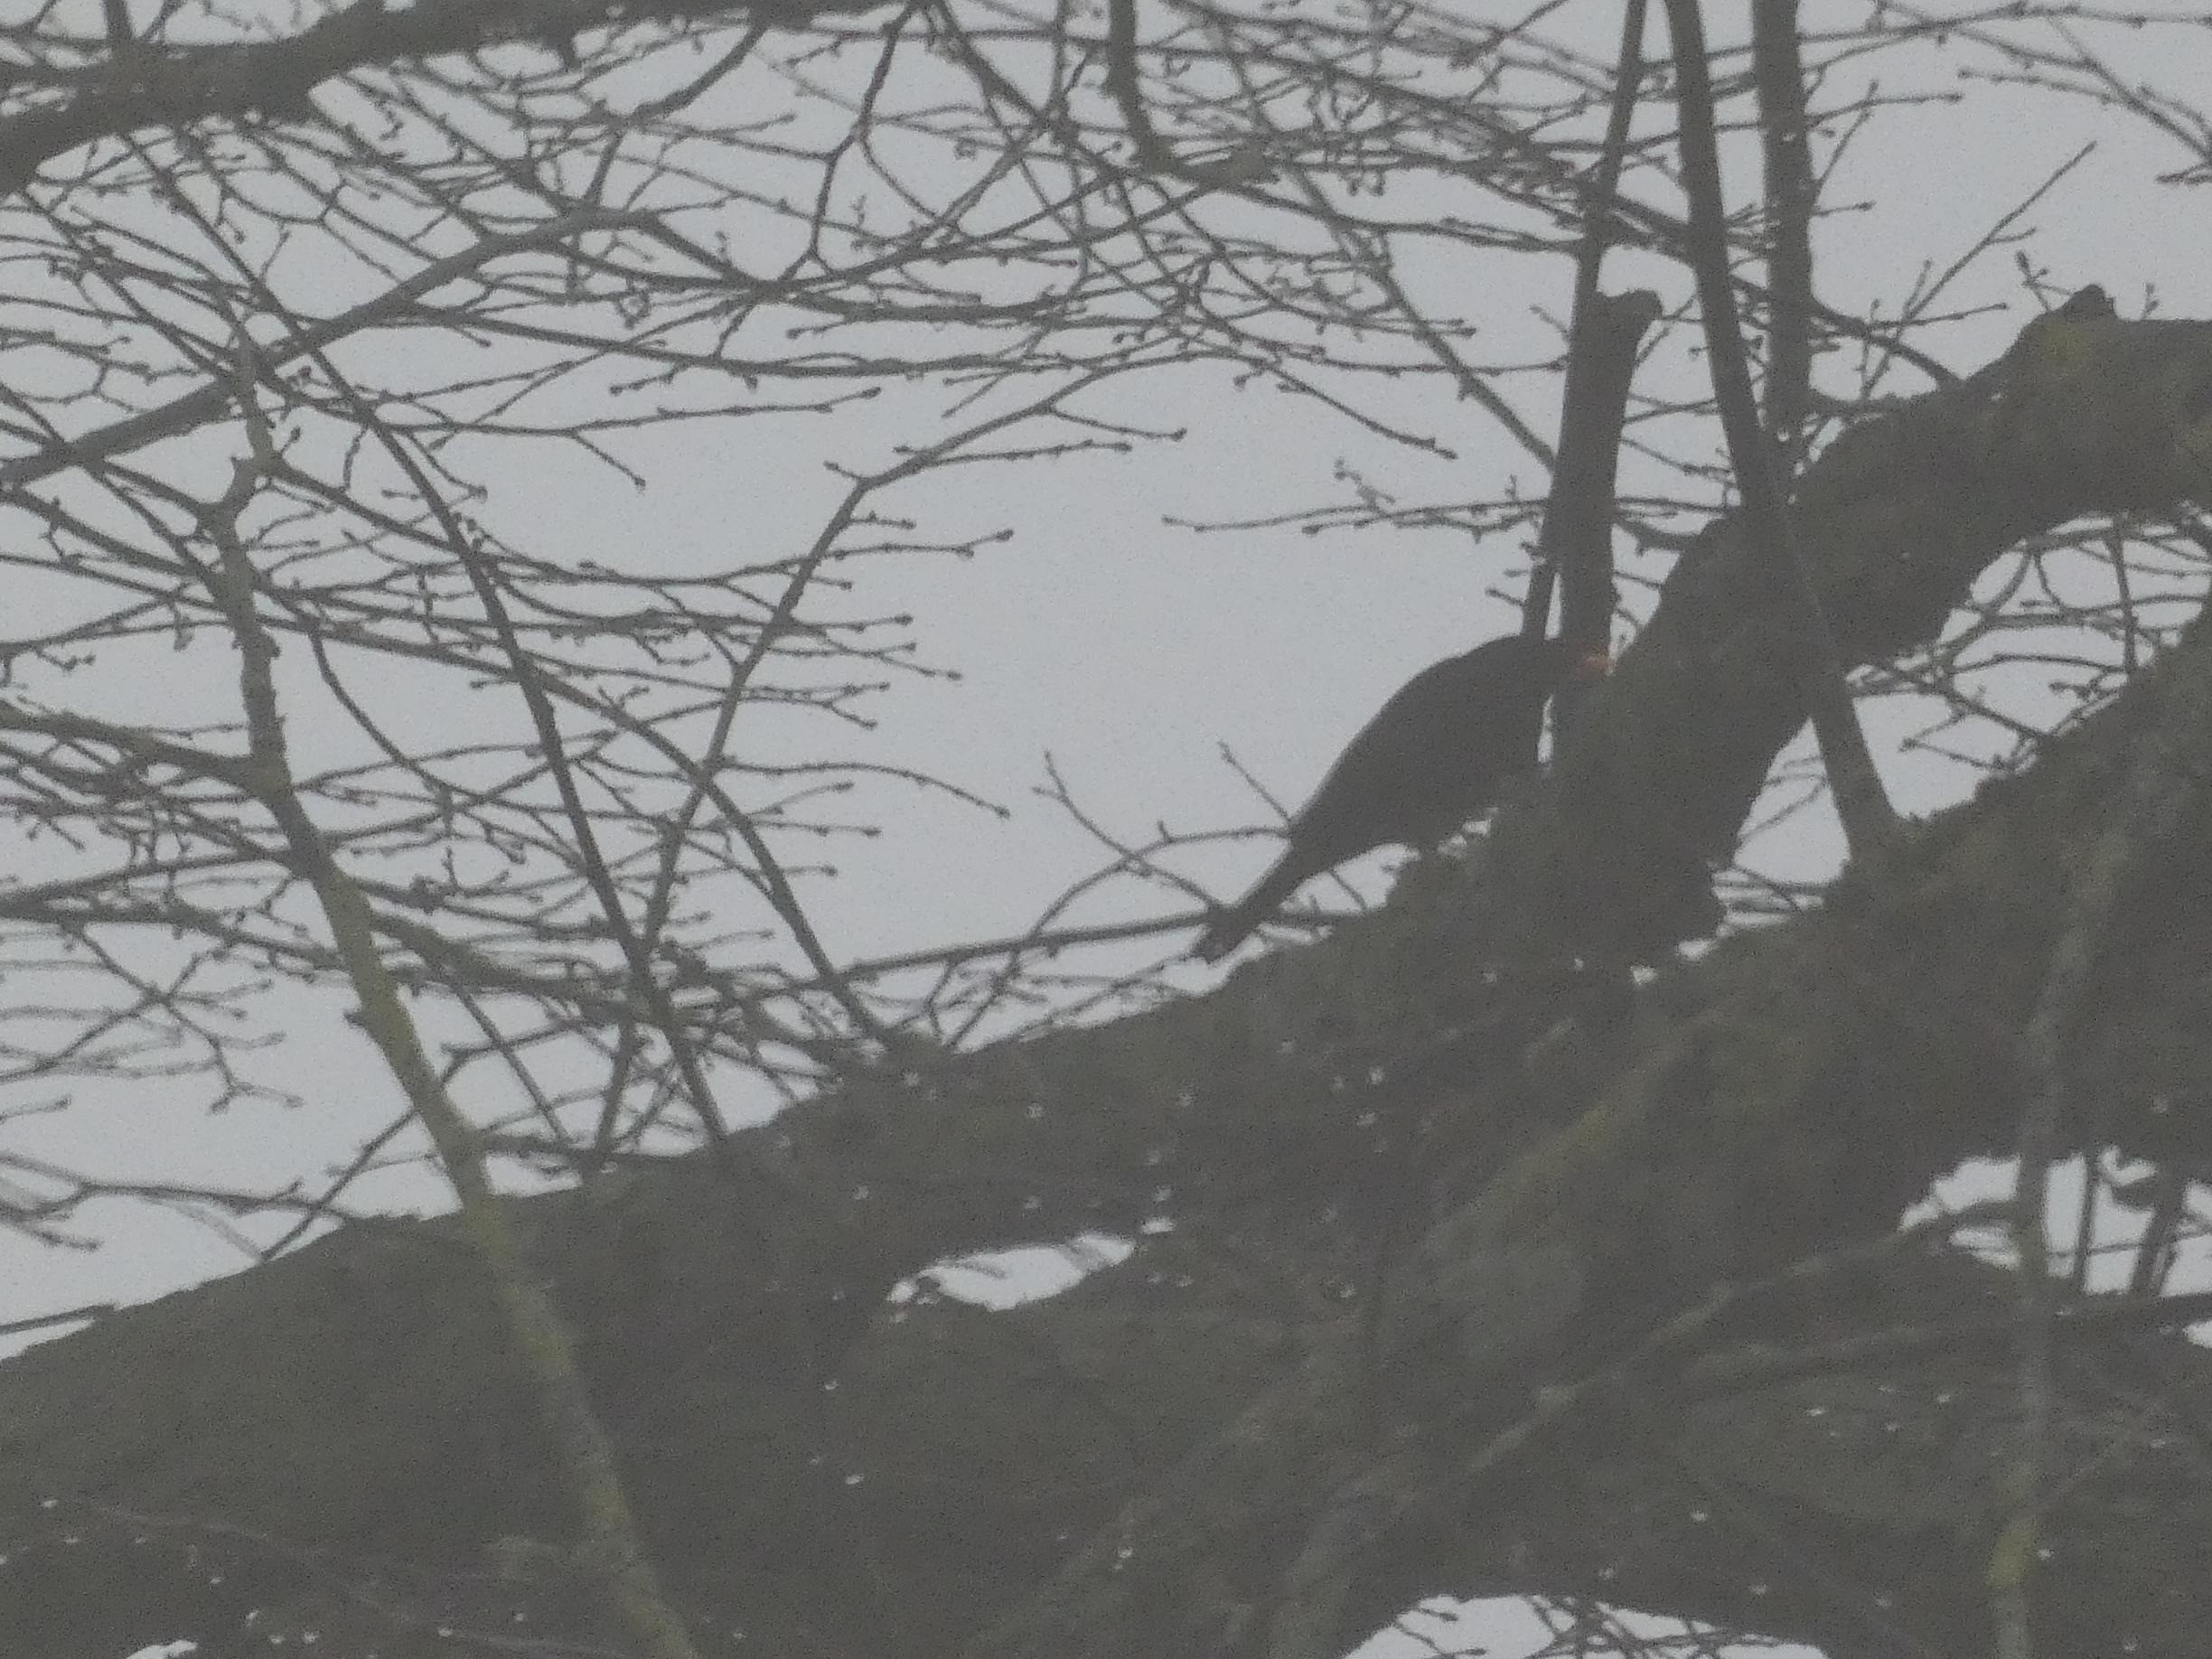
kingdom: Animalia
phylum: Chordata
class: Aves
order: Passeriformes
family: Turdidae
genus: Turdus
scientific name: Turdus merula
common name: Solsort
